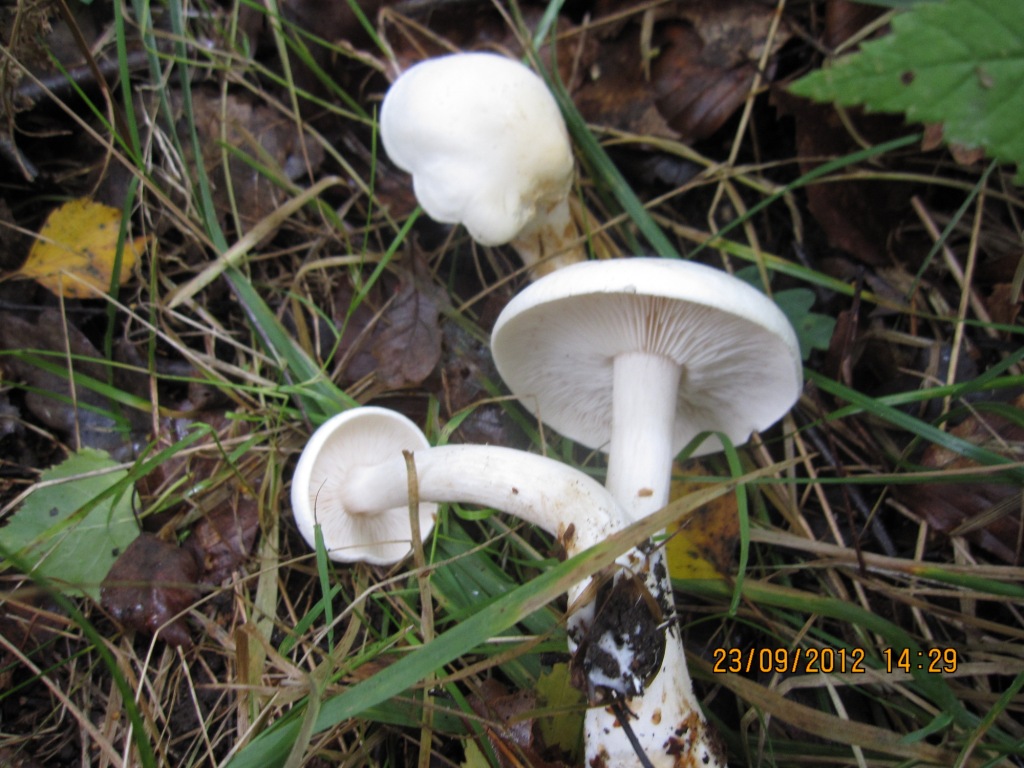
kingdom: Fungi
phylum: Basidiomycota
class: Agaricomycetes
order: Agaricales
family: Tricholomataceae
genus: Tricholoma
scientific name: Tricholoma stiparophyllum
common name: hvid ridderhat
